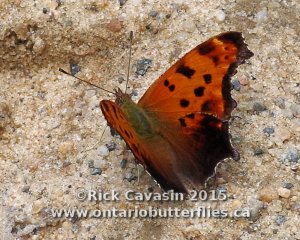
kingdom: Animalia
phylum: Arthropoda
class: Insecta
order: Lepidoptera
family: Nymphalidae
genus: Polygonia
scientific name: Polygonia comma
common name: Eastern Comma
